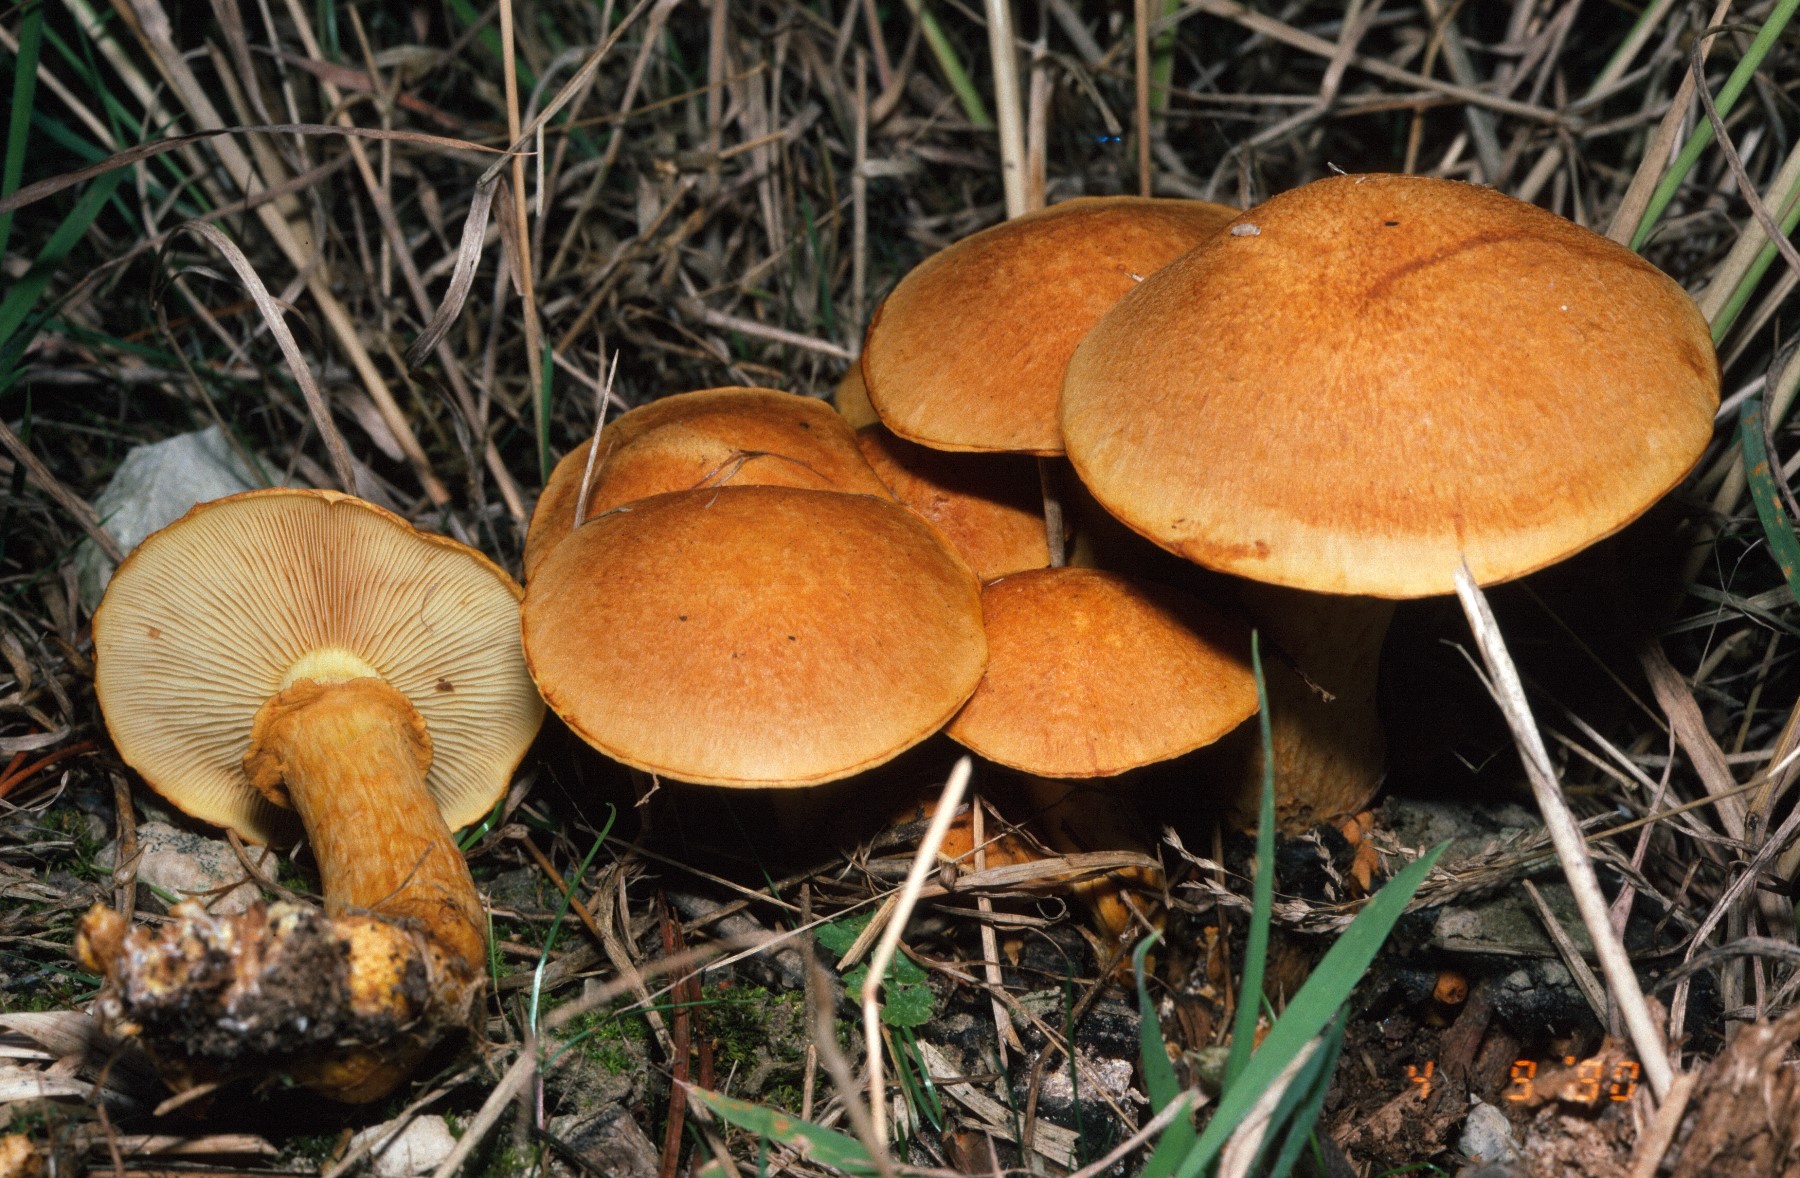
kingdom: Fungi
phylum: Basidiomycota
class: Agaricomycetes
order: Agaricales
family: Hymenogastraceae
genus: Gymnopilus
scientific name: Gymnopilus spectabilis
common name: fibret flammehat
